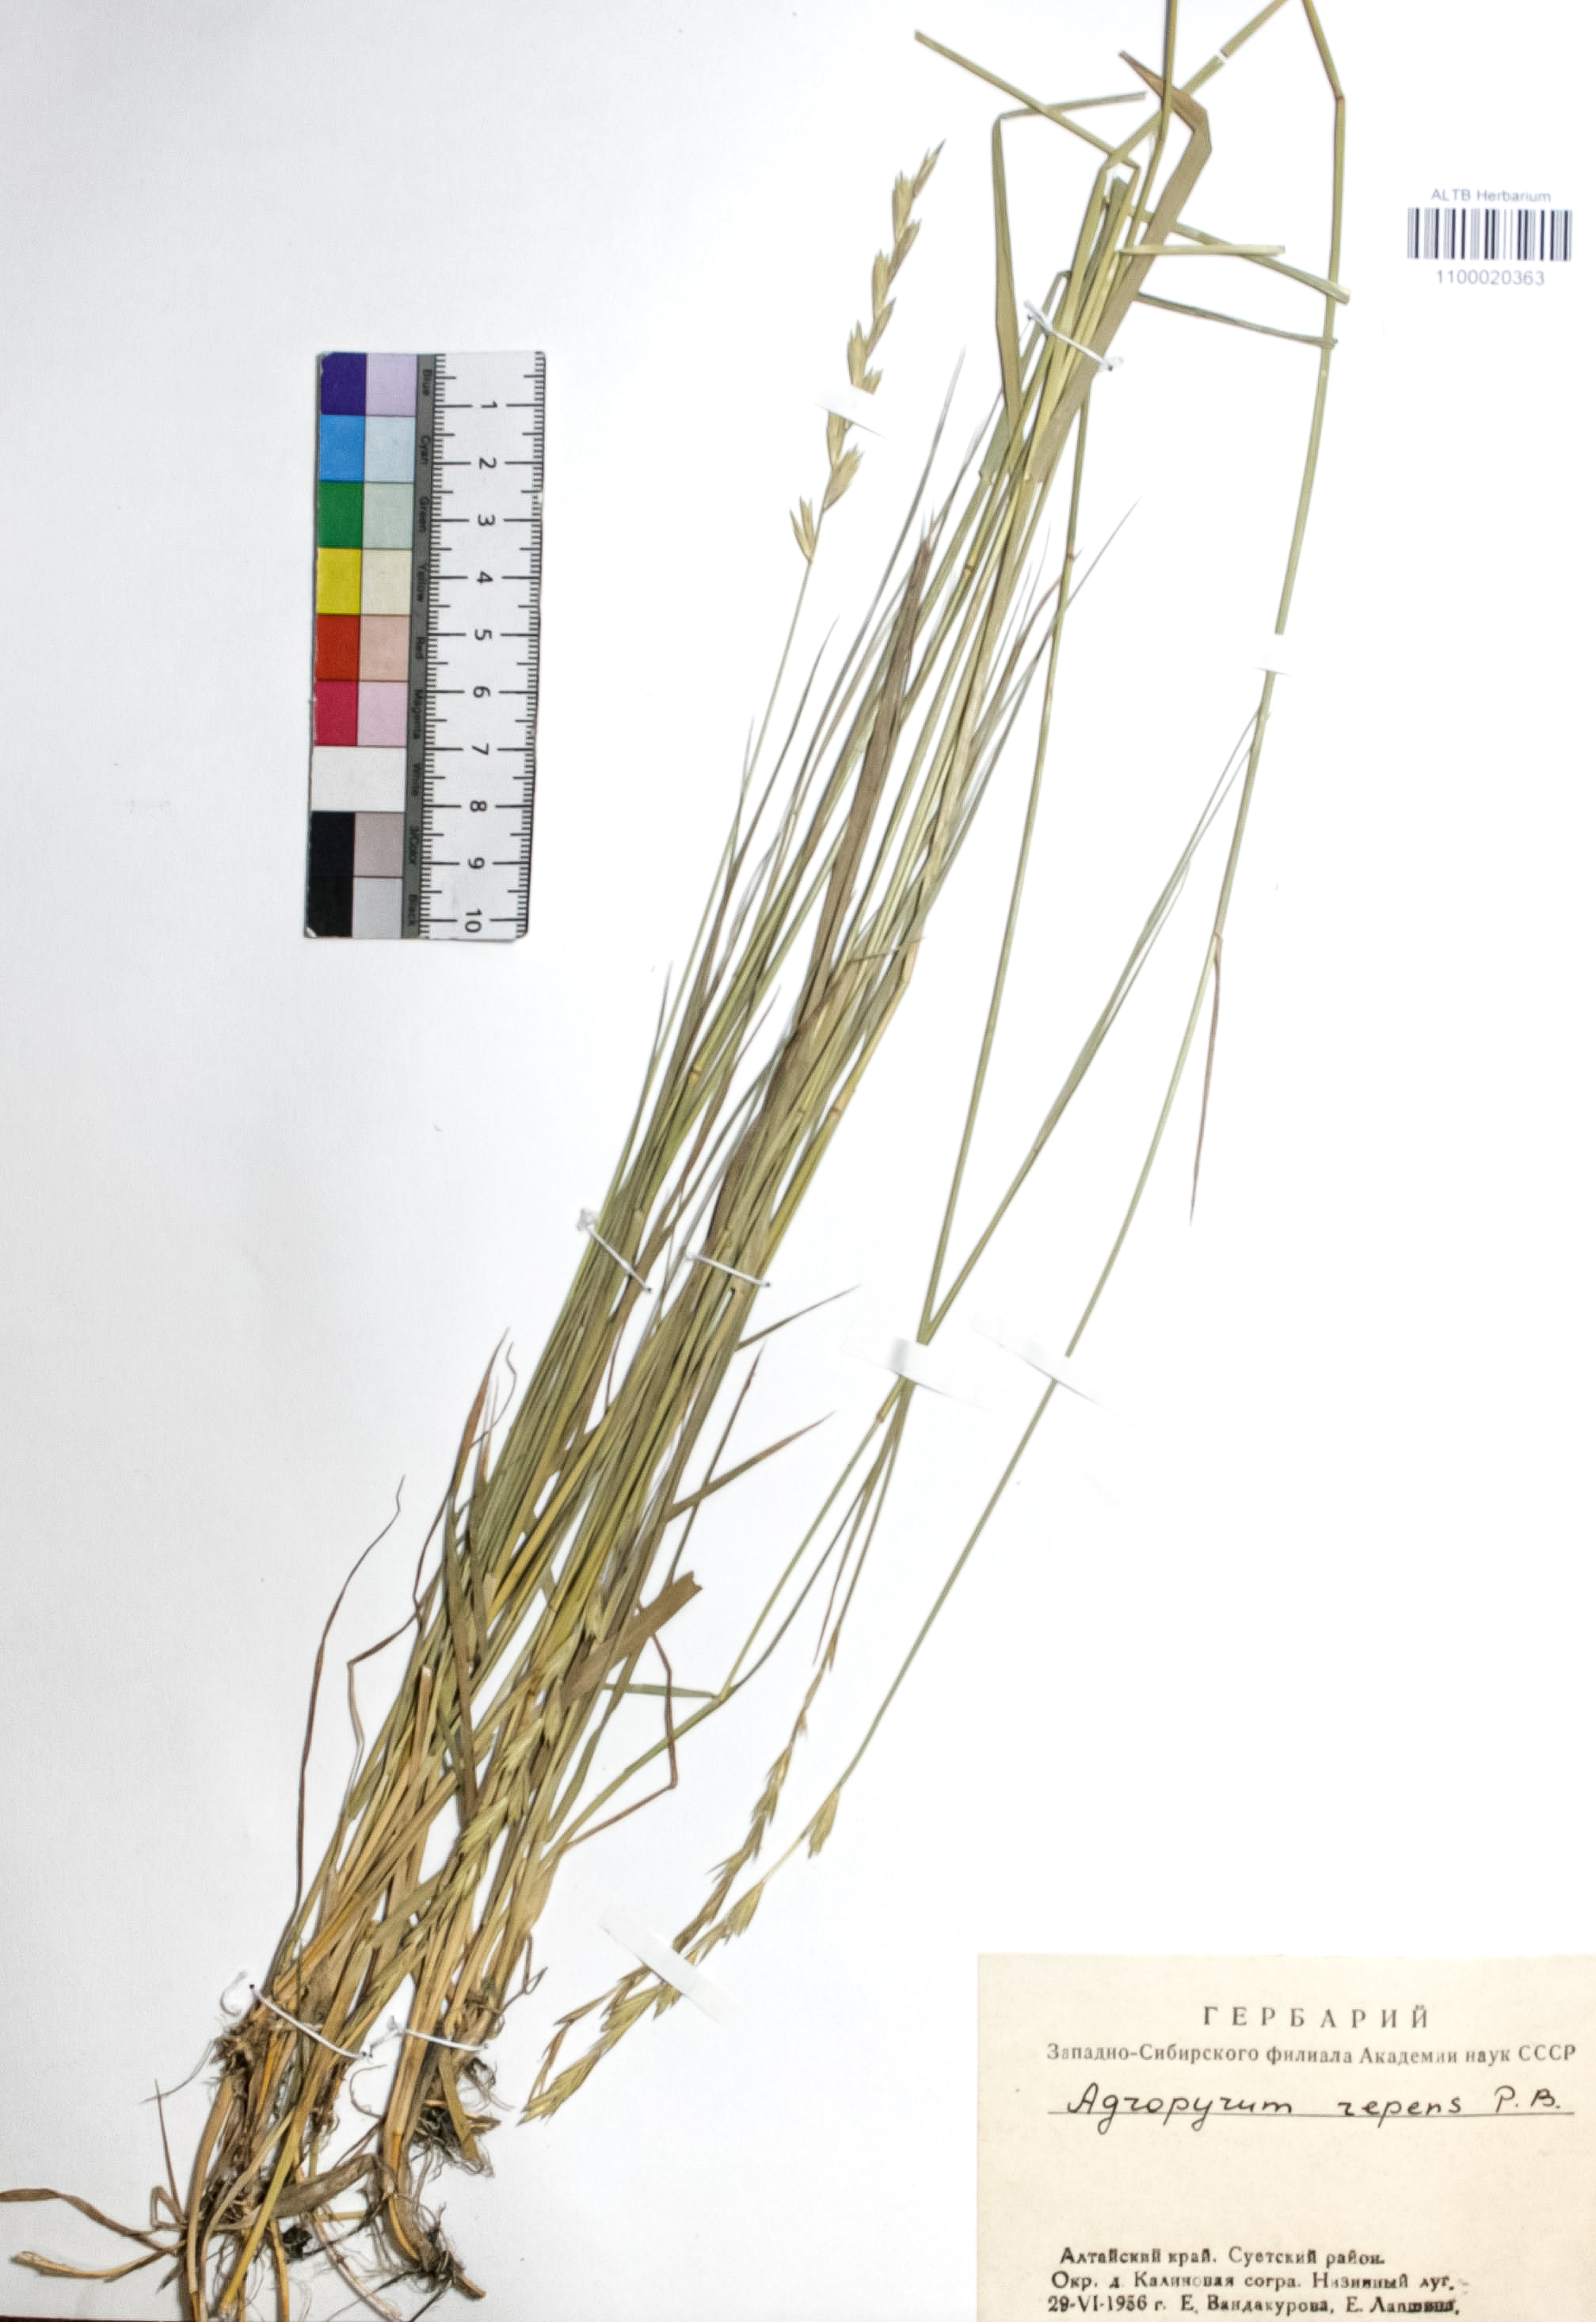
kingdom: Plantae
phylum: Tracheophyta
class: Liliopsida
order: Poales
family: Poaceae
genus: Elymus
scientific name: Elymus repens
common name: Quackgrass
